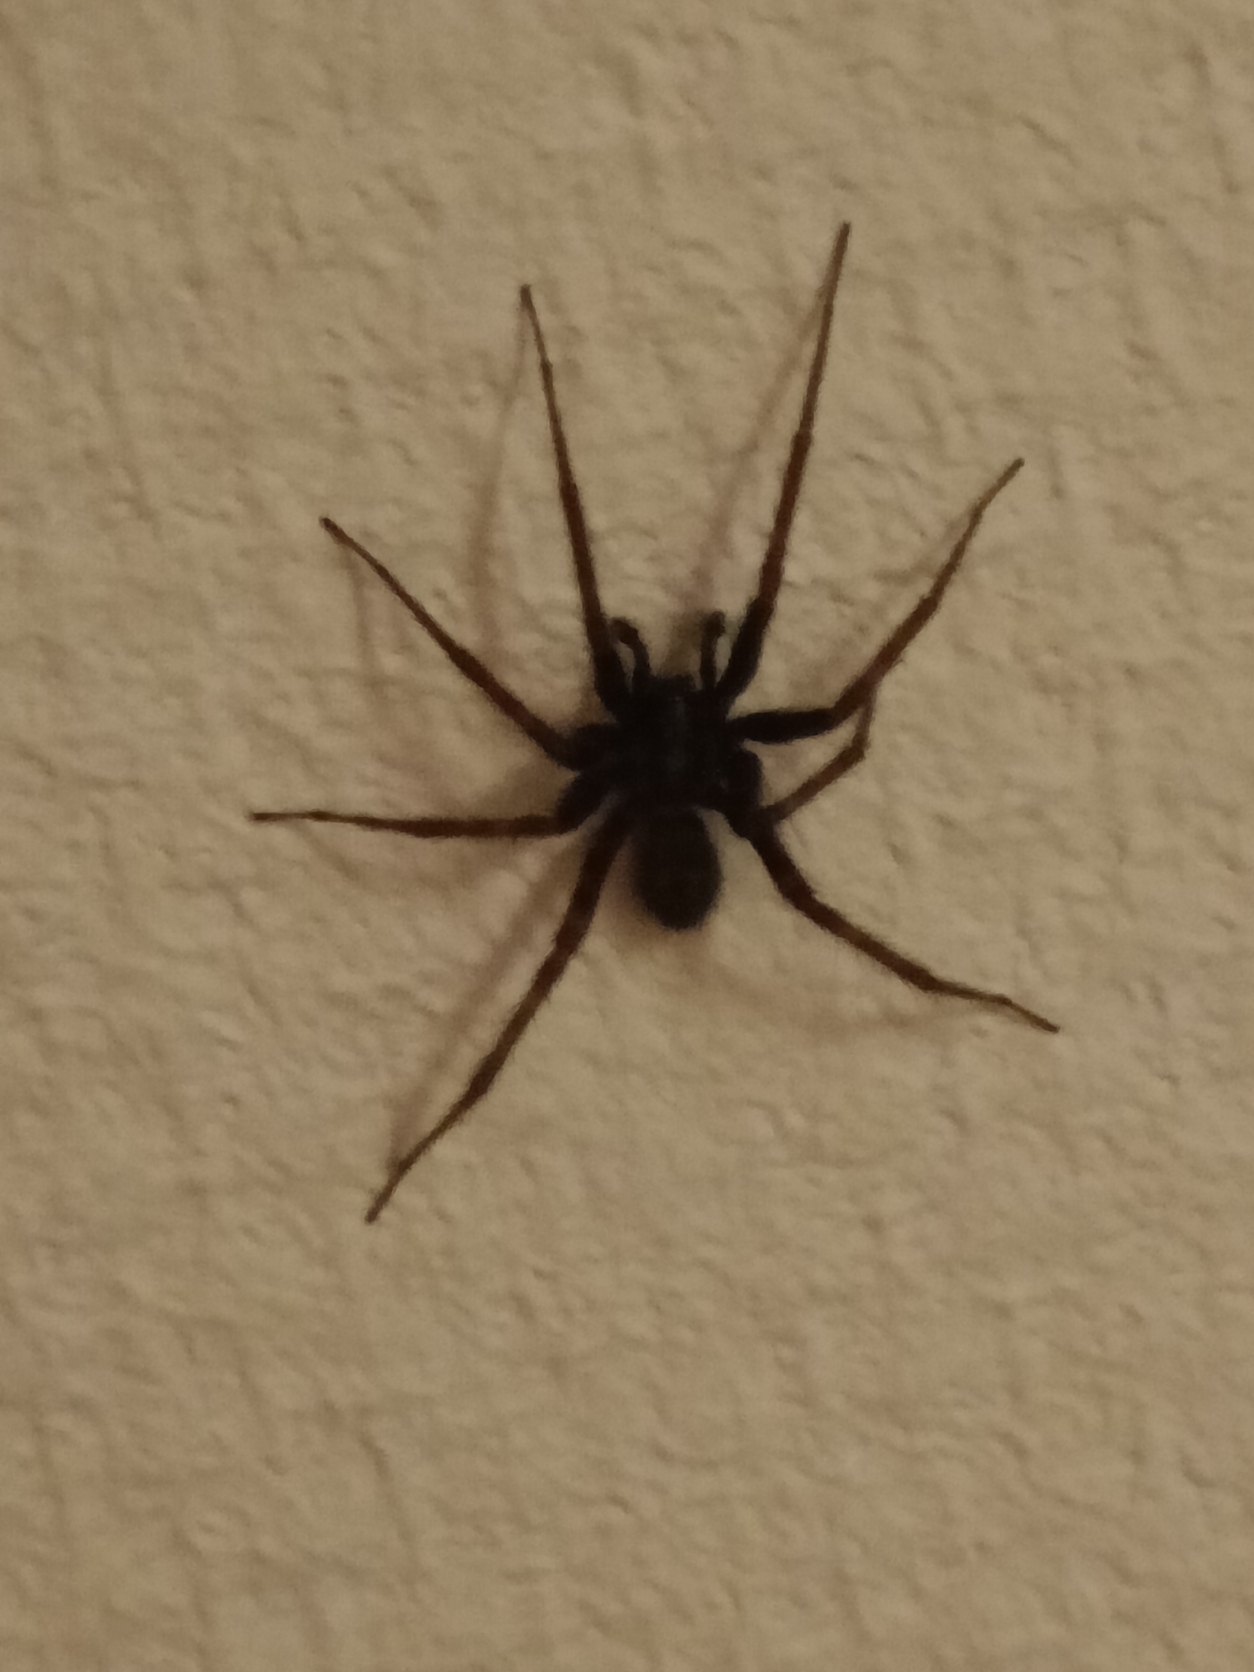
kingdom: Animalia
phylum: Arthropoda
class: Arachnida
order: Araneae
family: Agelenidae
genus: Tegenaria
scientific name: Tegenaria domestica
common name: Lille husedderkop
